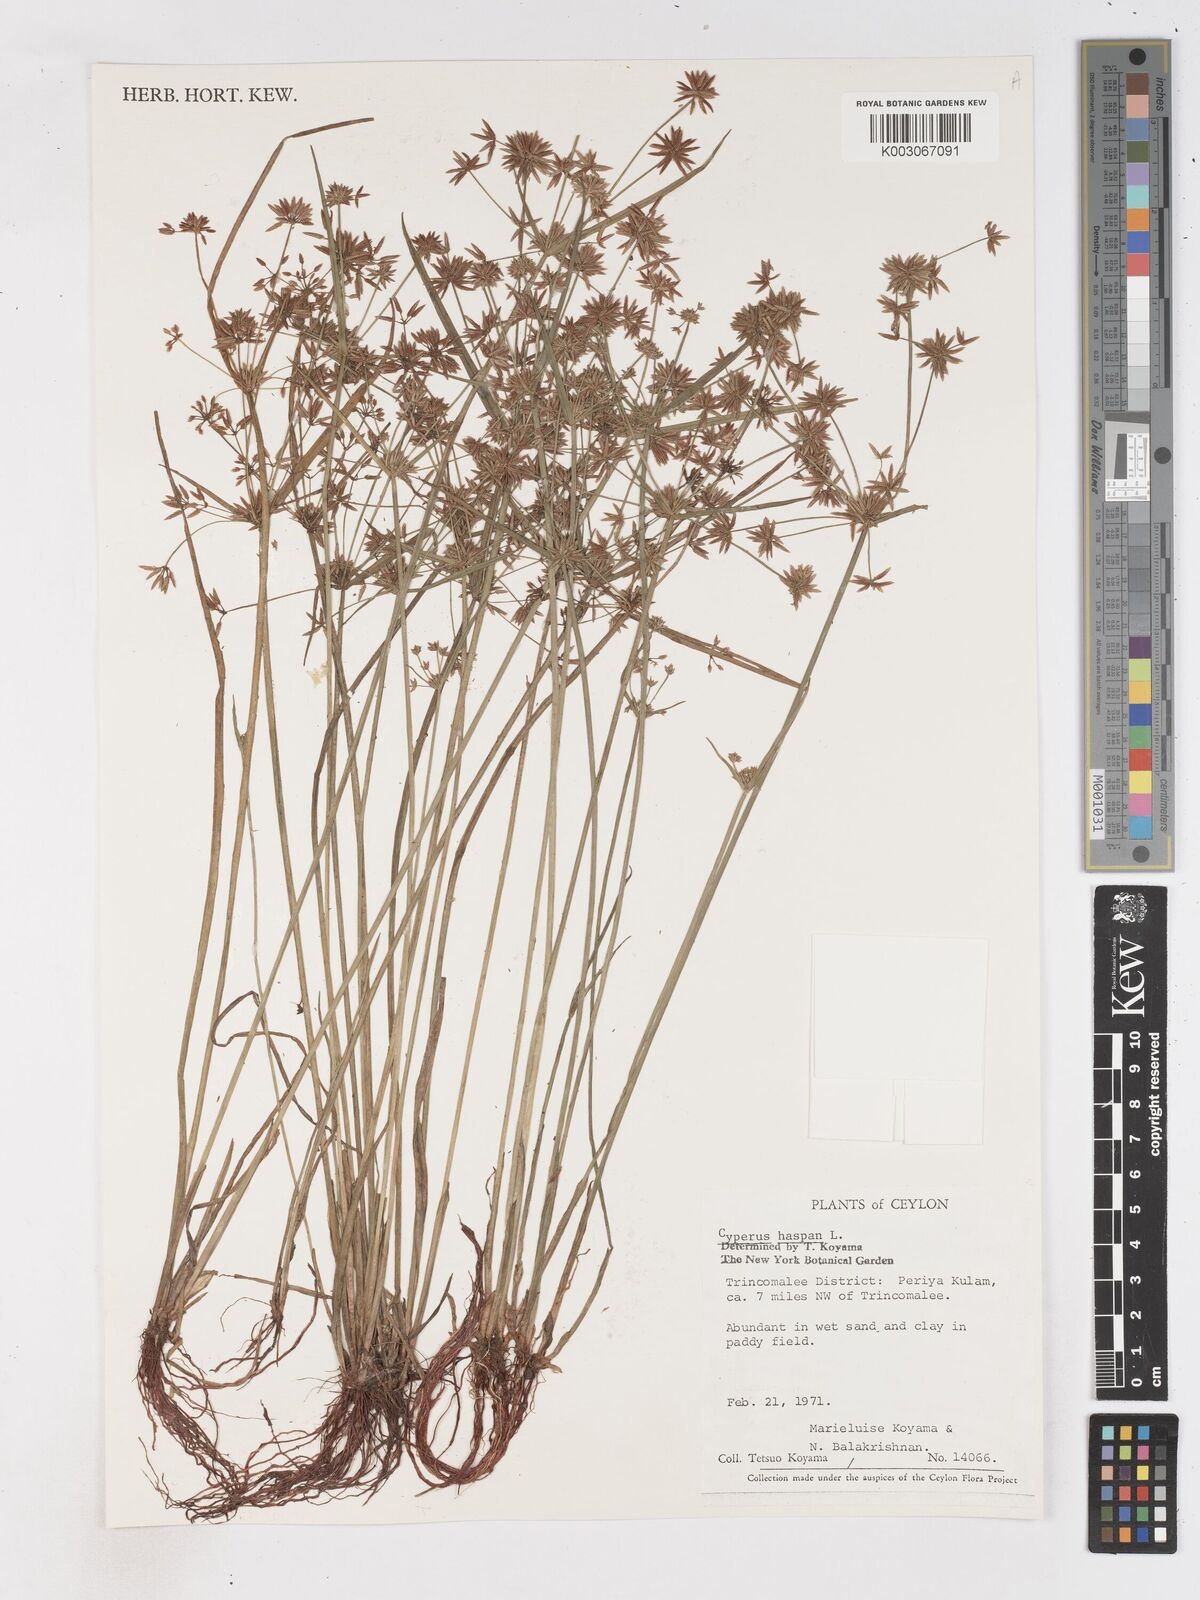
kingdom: Plantae
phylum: Tracheophyta
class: Liliopsida
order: Poales
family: Cyperaceae
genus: Cyperus
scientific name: Cyperus haspan
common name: Haspan flatsedge
